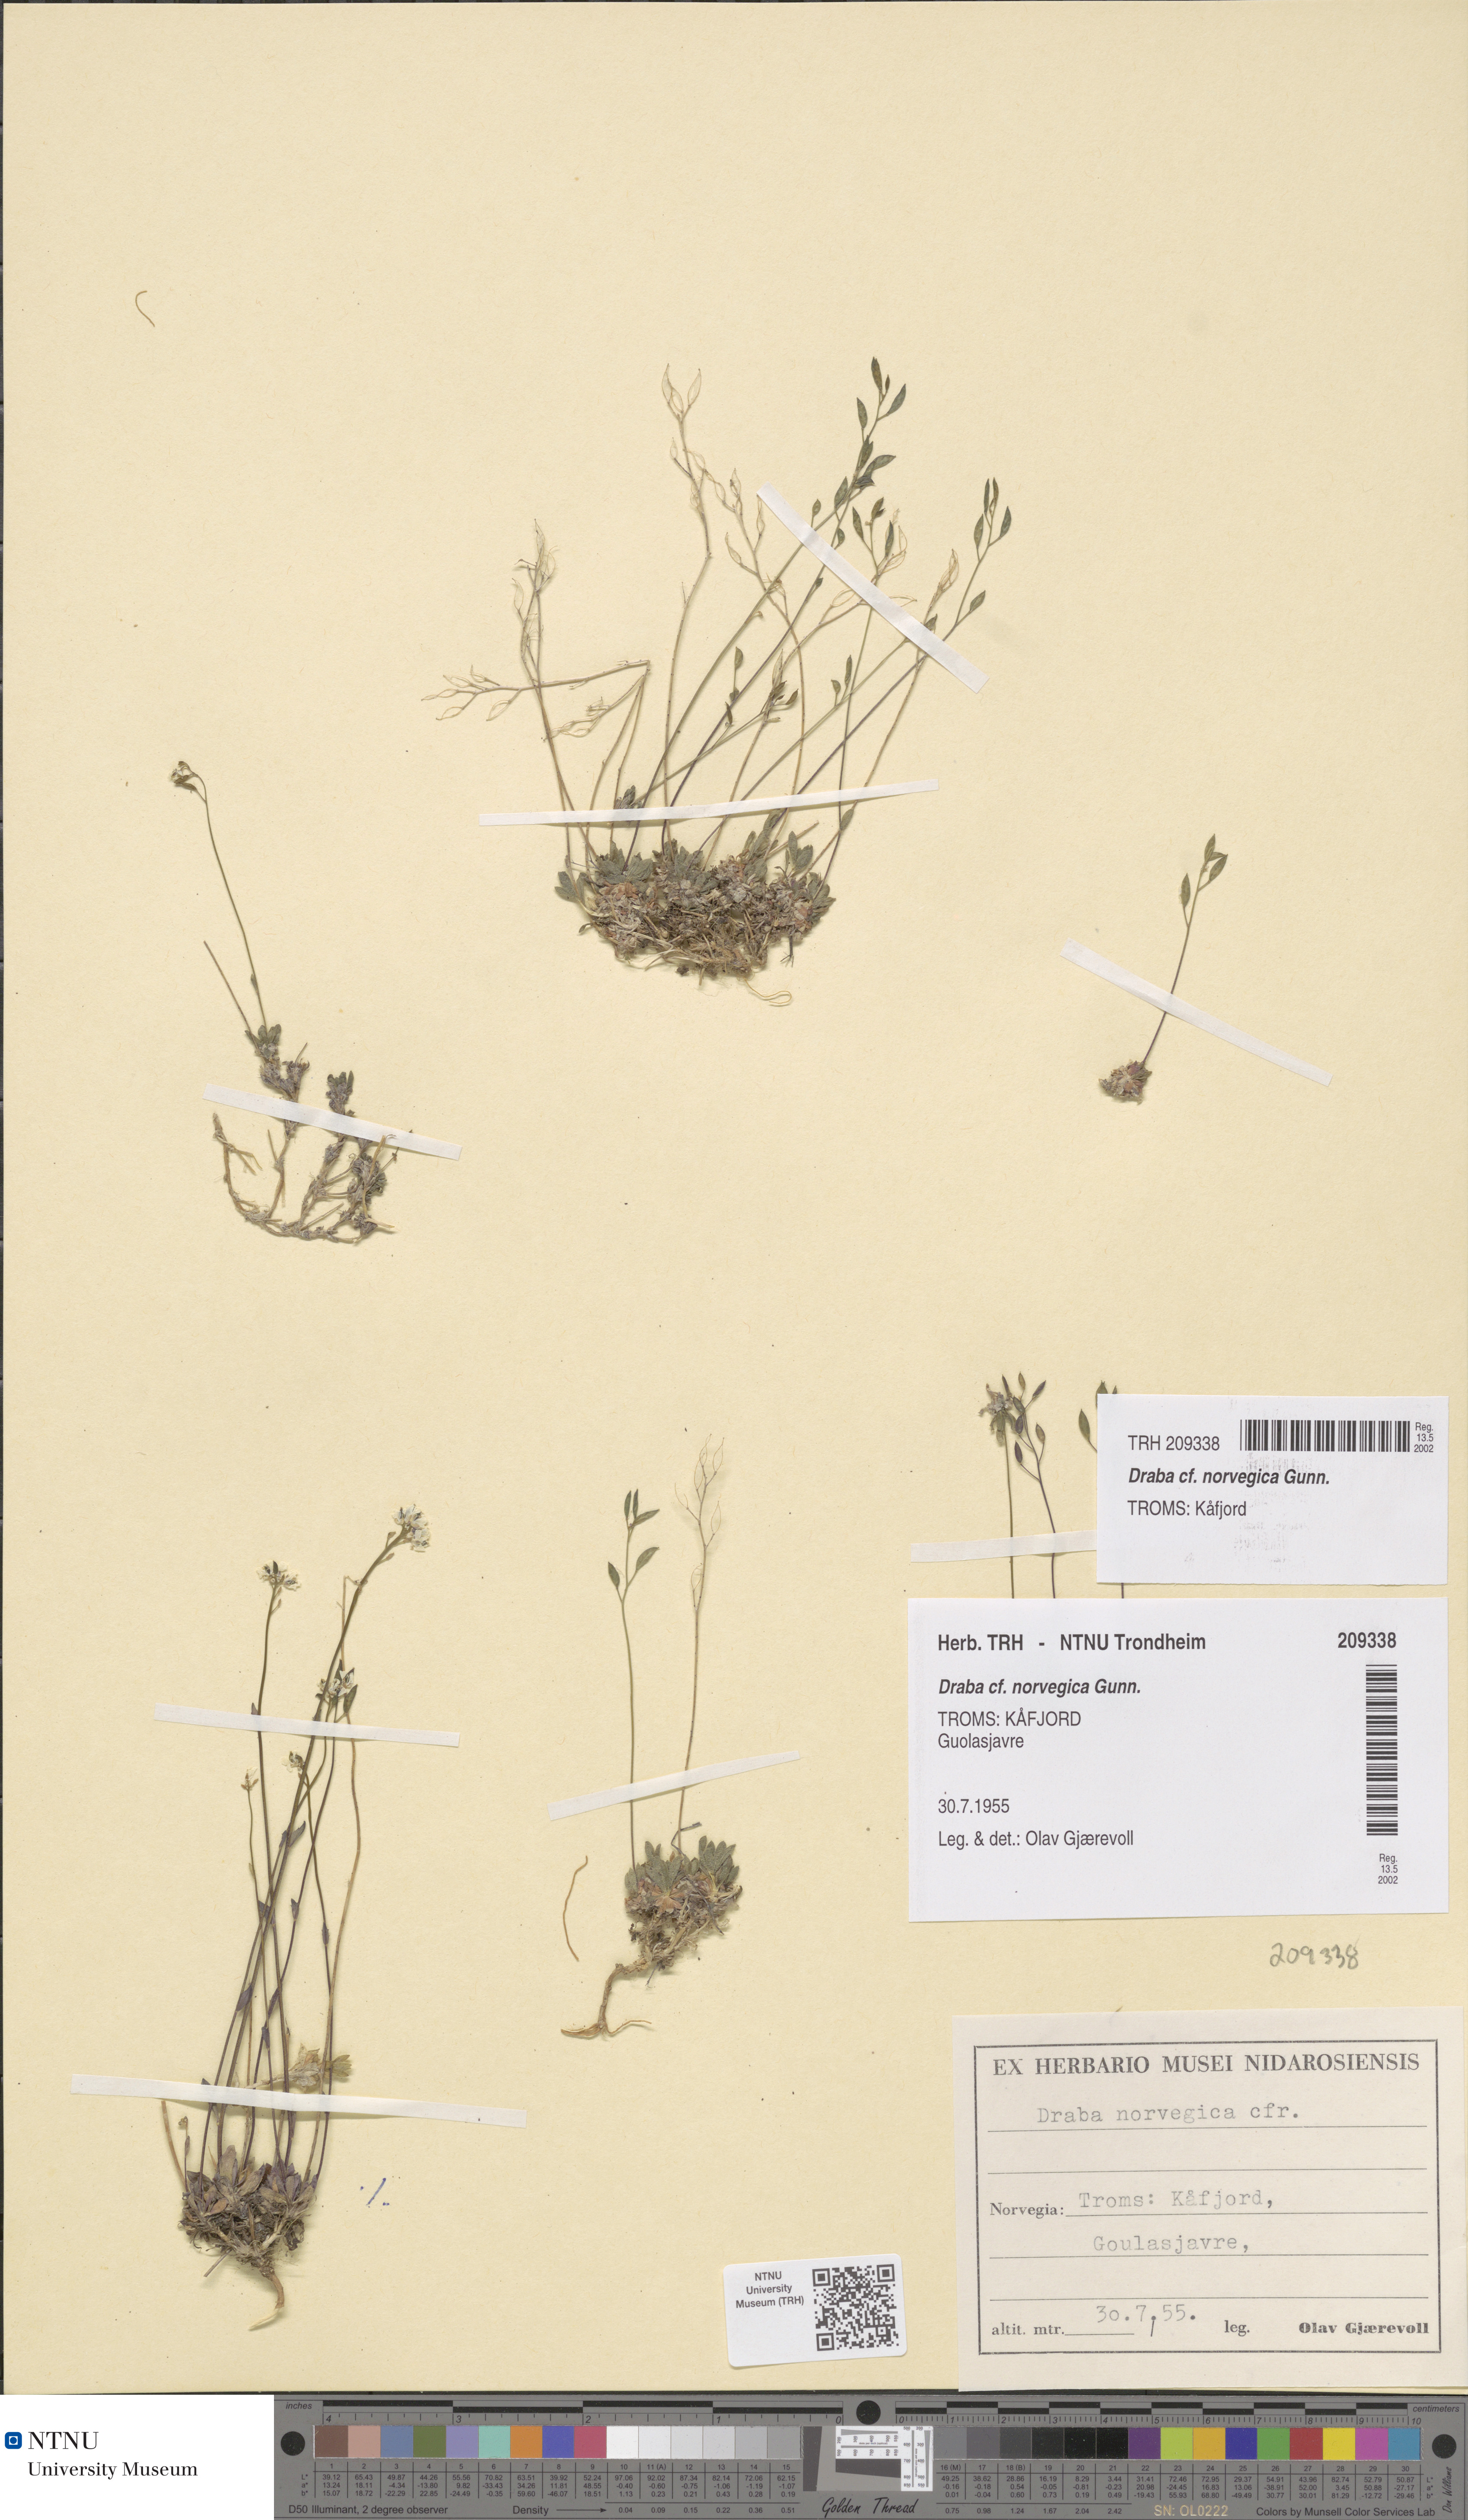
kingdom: Plantae
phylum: Tracheophyta
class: Magnoliopsida
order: Brassicales
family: Brassicaceae
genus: Draba
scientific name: Draba norvegica
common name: Rock whitlowgrass
